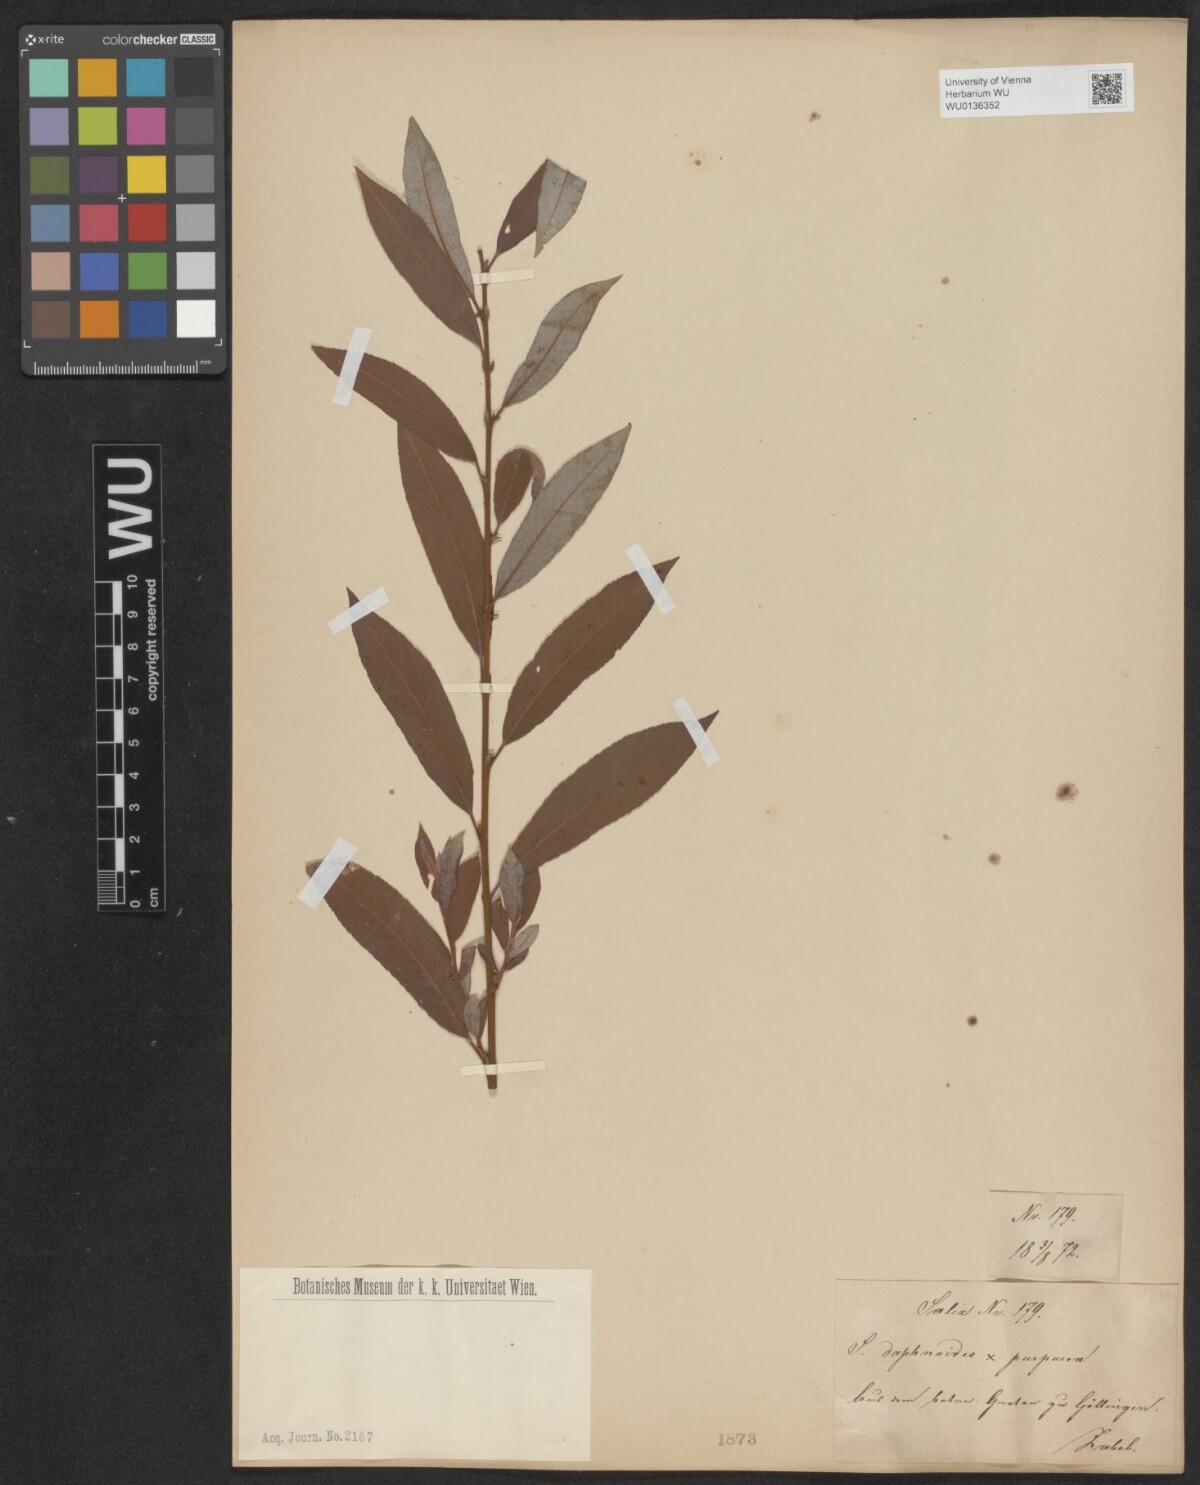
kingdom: Plantae
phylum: Tracheophyta
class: Magnoliopsida
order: Malpighiales
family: Salicaceae
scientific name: Salicaceae
